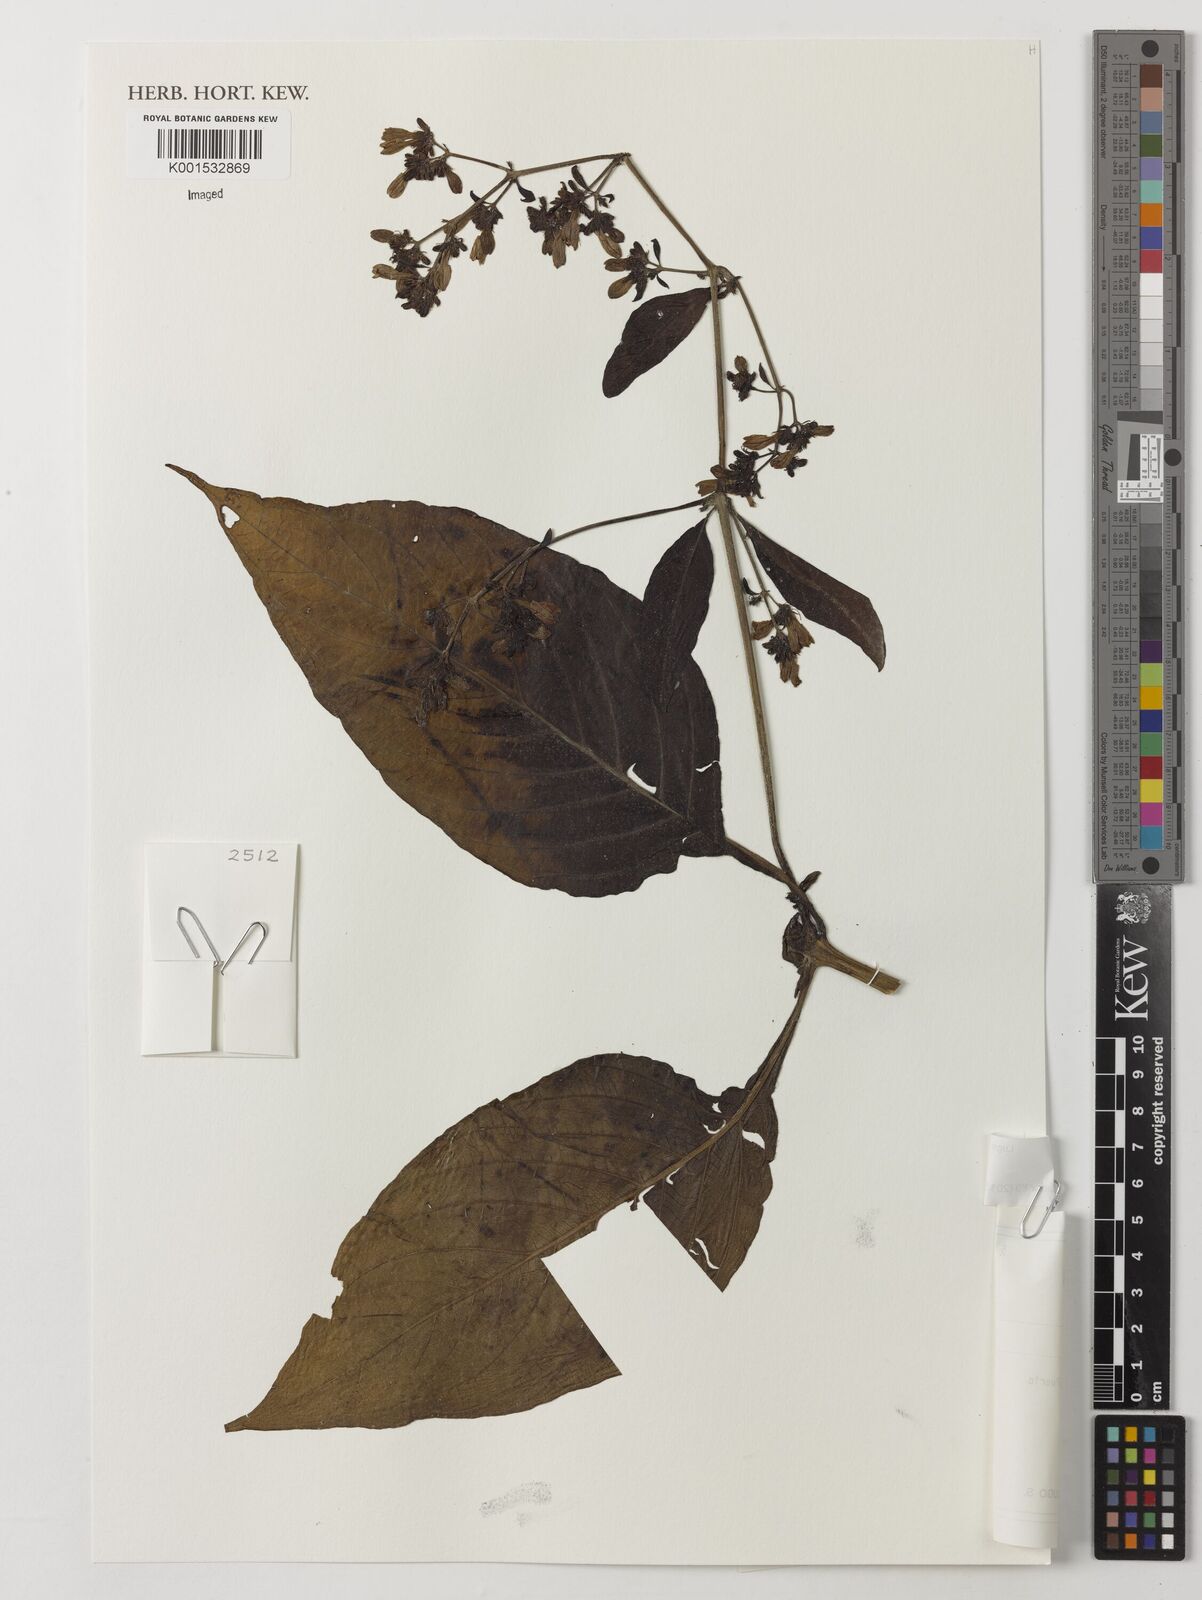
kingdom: Plantae
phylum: Tracheophyta
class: Magnoliopsida
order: Lamiales
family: Acanthaceae
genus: Justicia
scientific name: Justicia chloanantha
